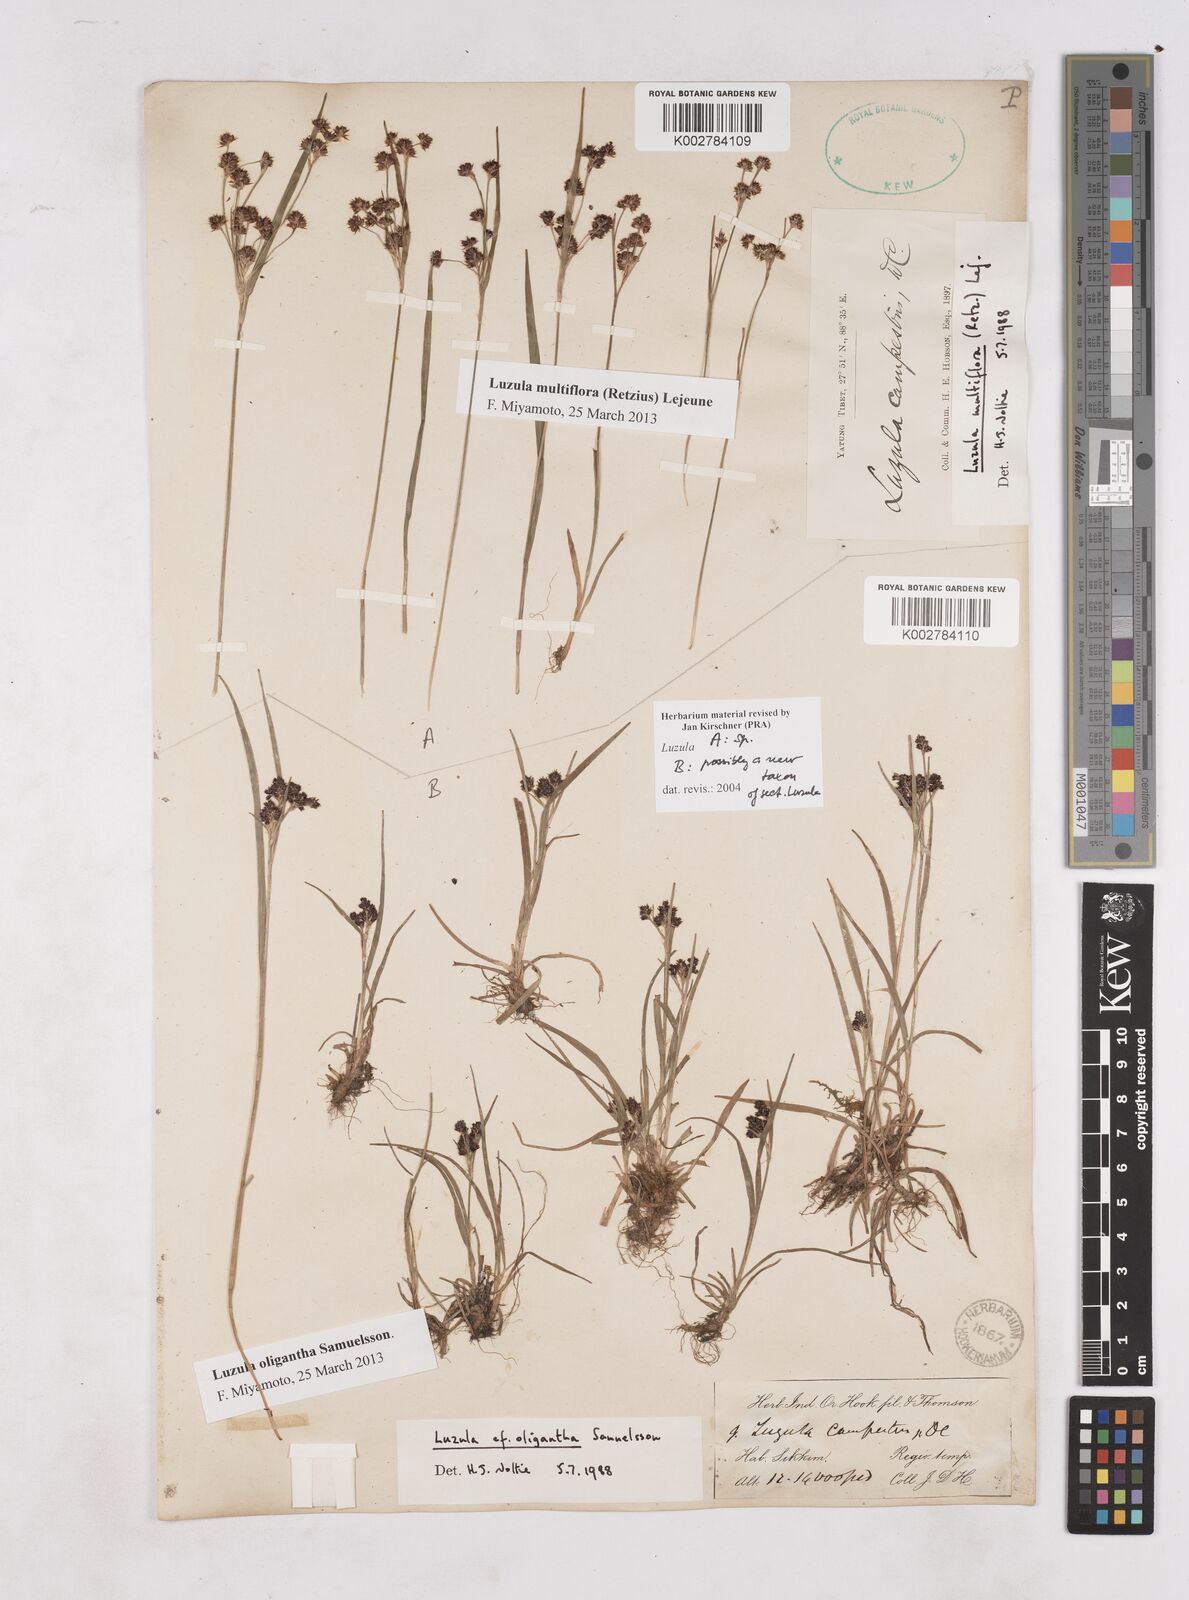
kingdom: Plantae
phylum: Tracheophyta
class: Liliopsida
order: Poales
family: Juncaceae
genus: Luzula
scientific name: Luzula
